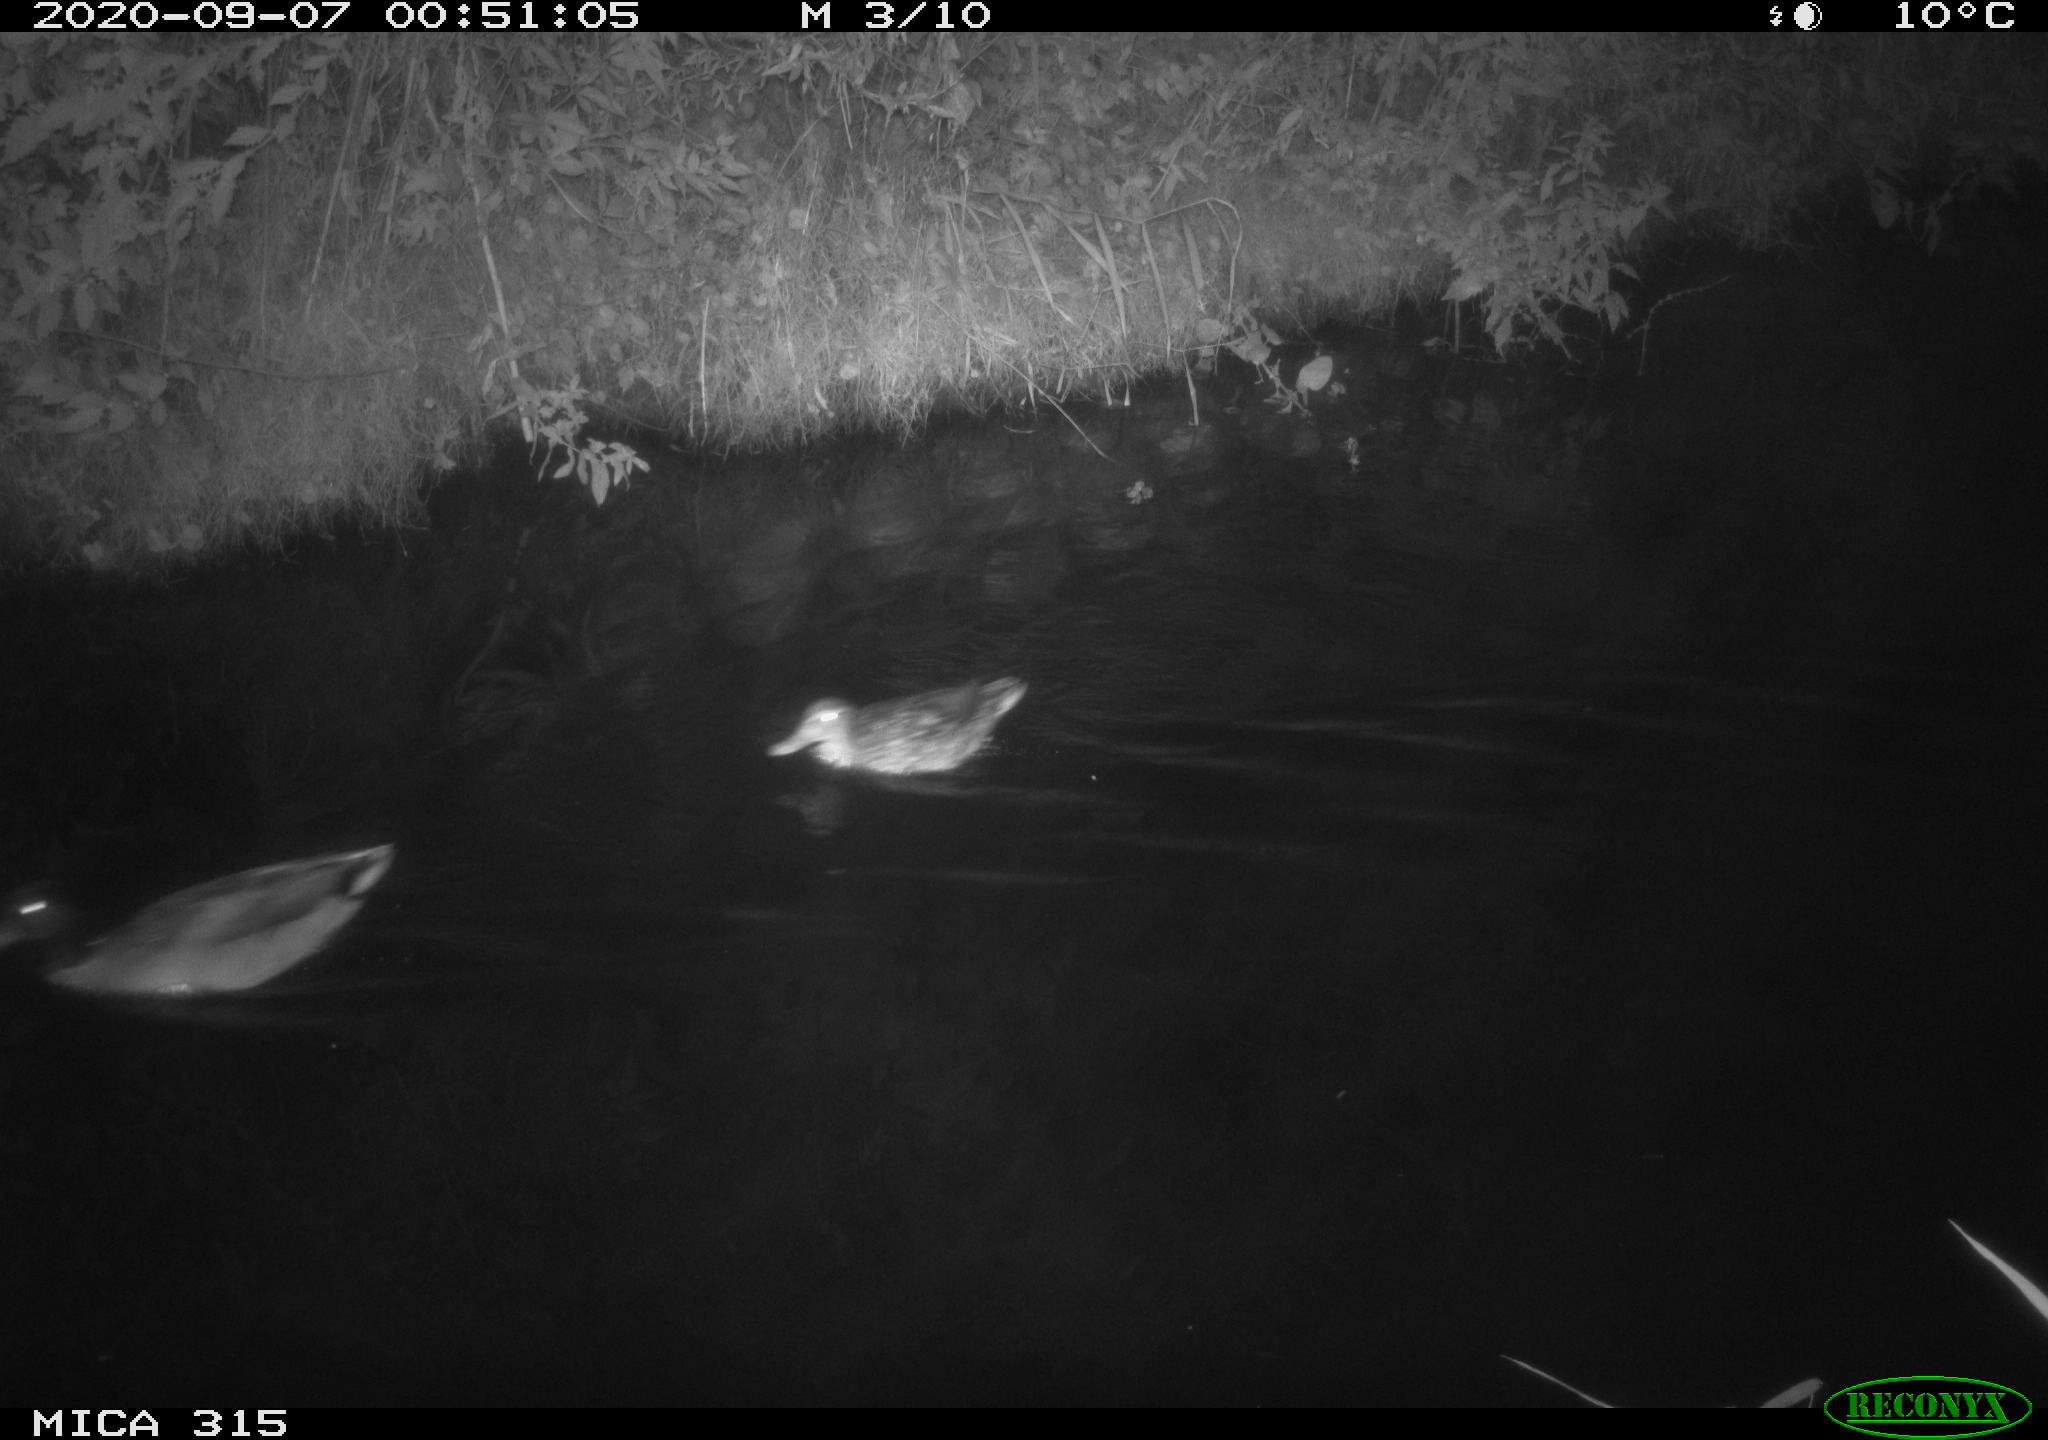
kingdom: Animalia
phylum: Chordata
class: Aves
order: Anseriformes
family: Anatidae
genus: Anas
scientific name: Anas platyrhynchos
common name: Mallard
